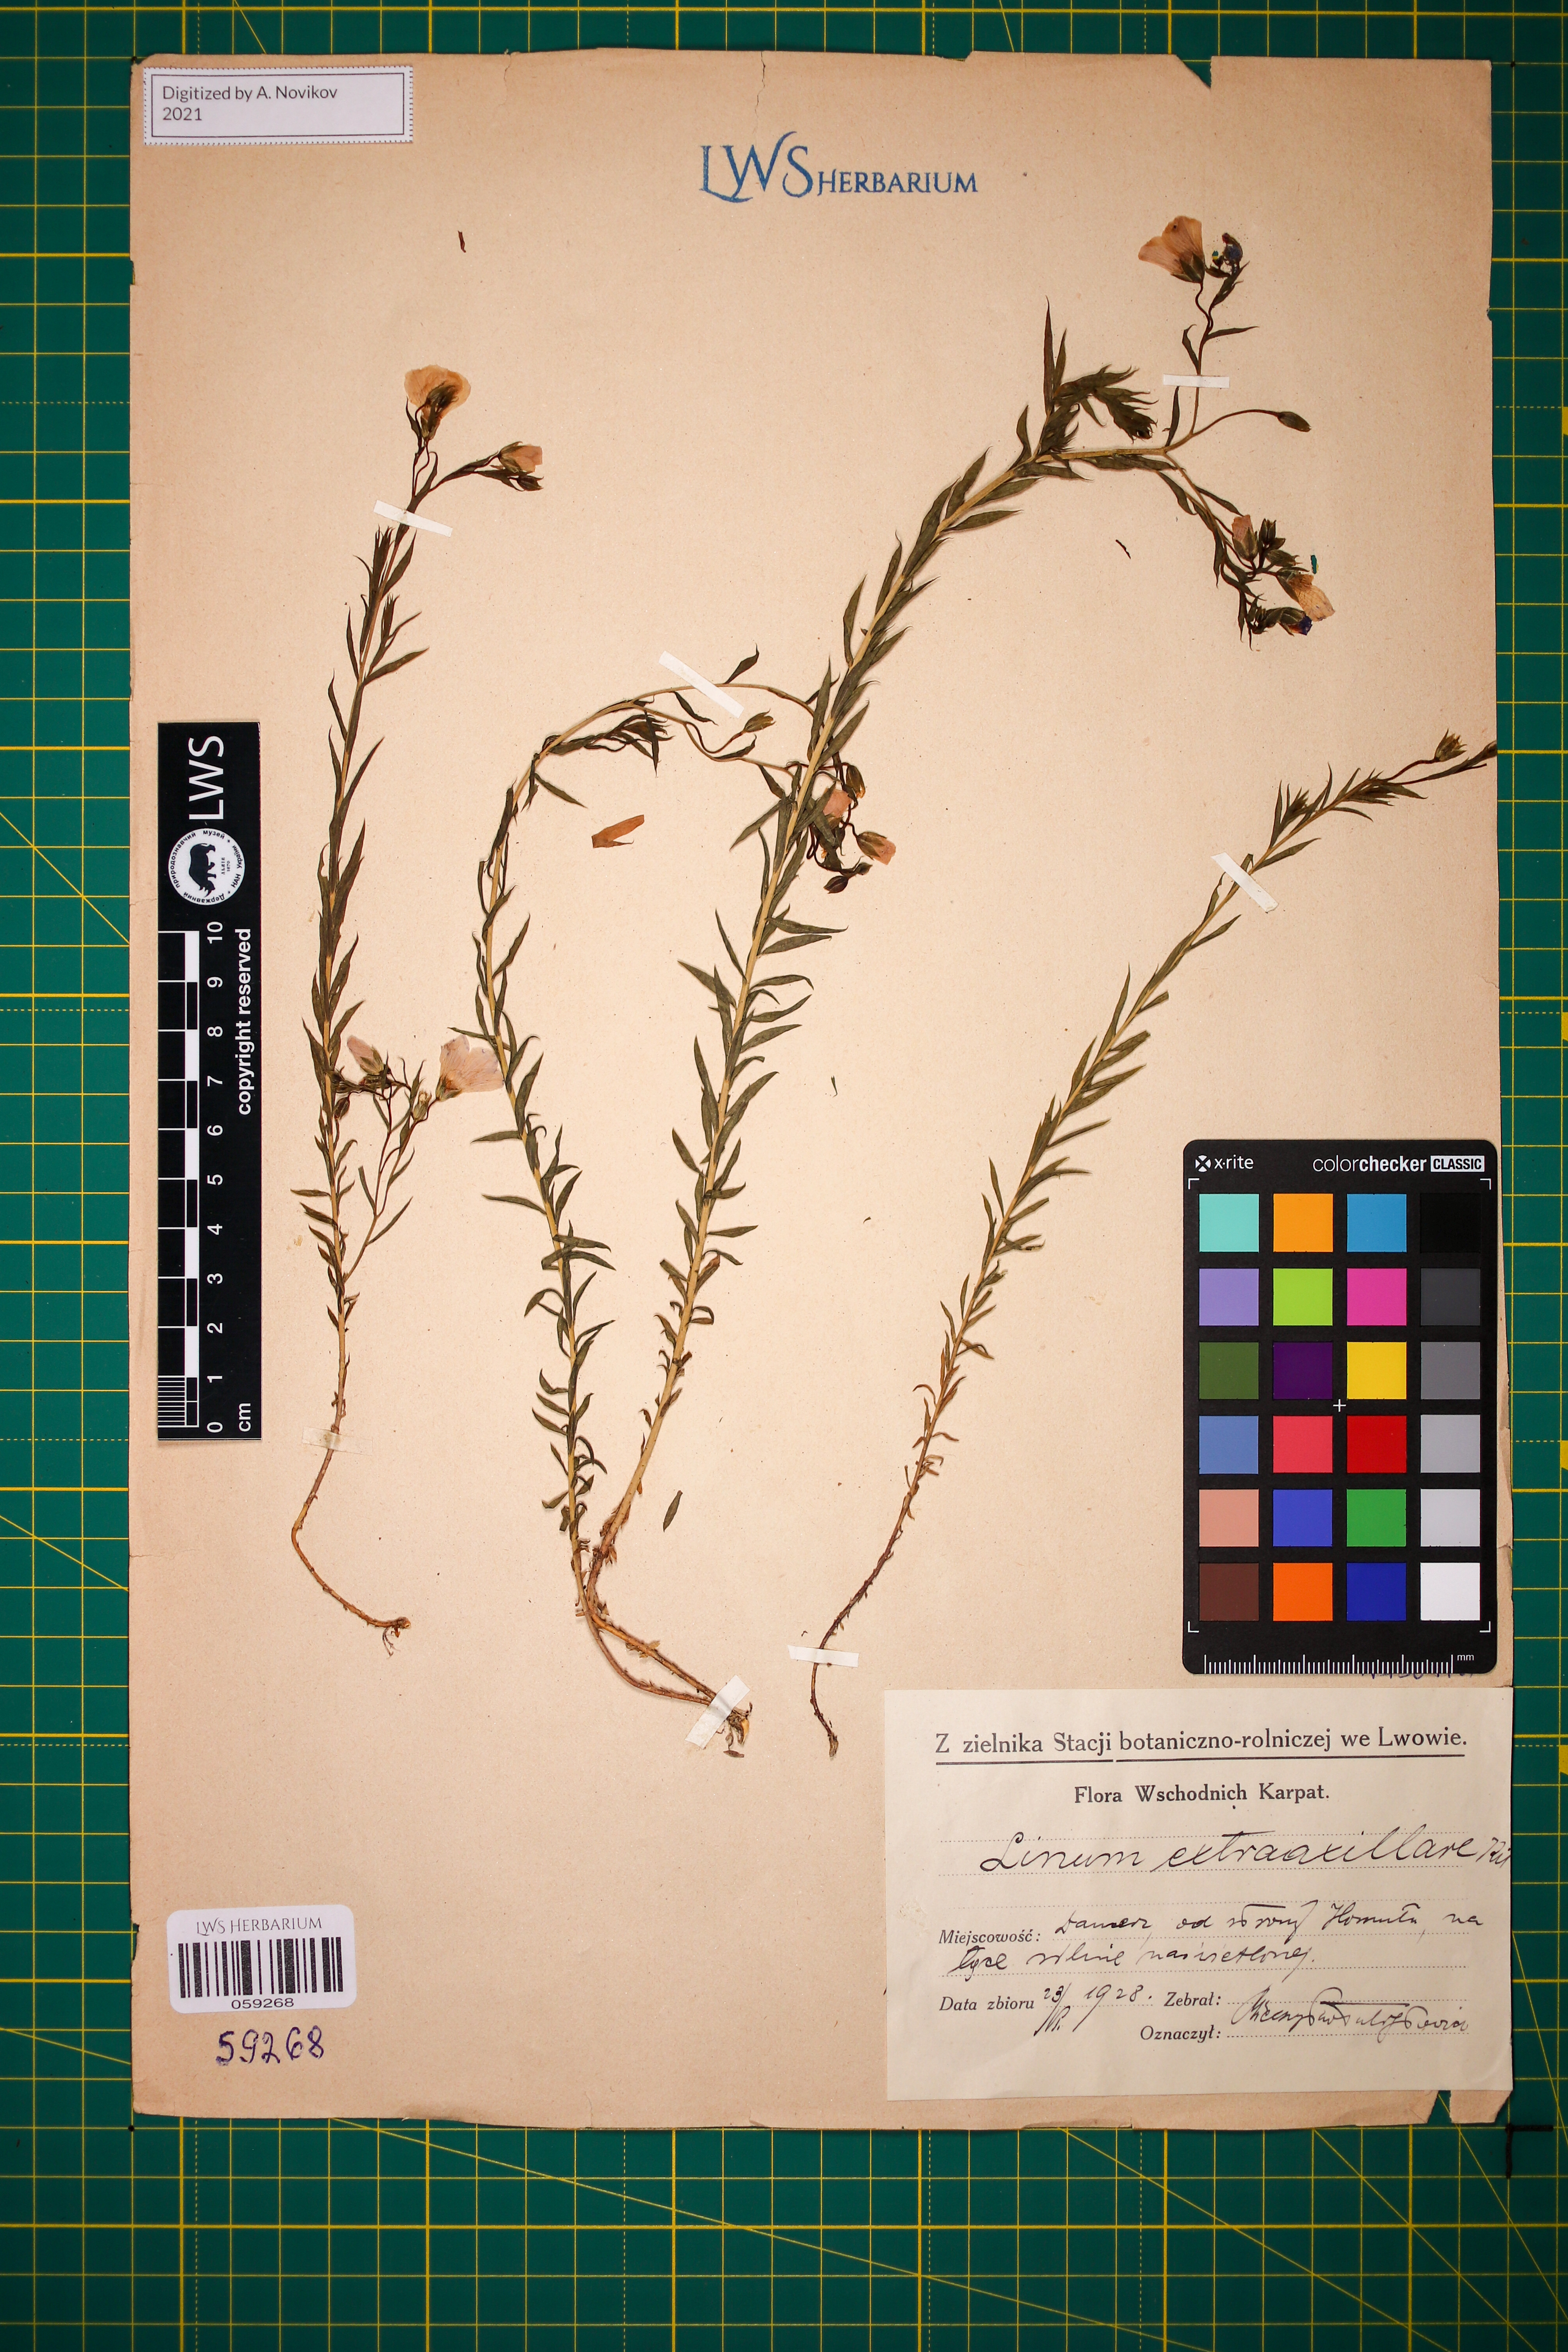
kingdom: Plantae
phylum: Tracheophyta
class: Magnoliopsida
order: Malpighiales
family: Linaceae
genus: Linum
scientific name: Linum perenne
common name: Blue flax
